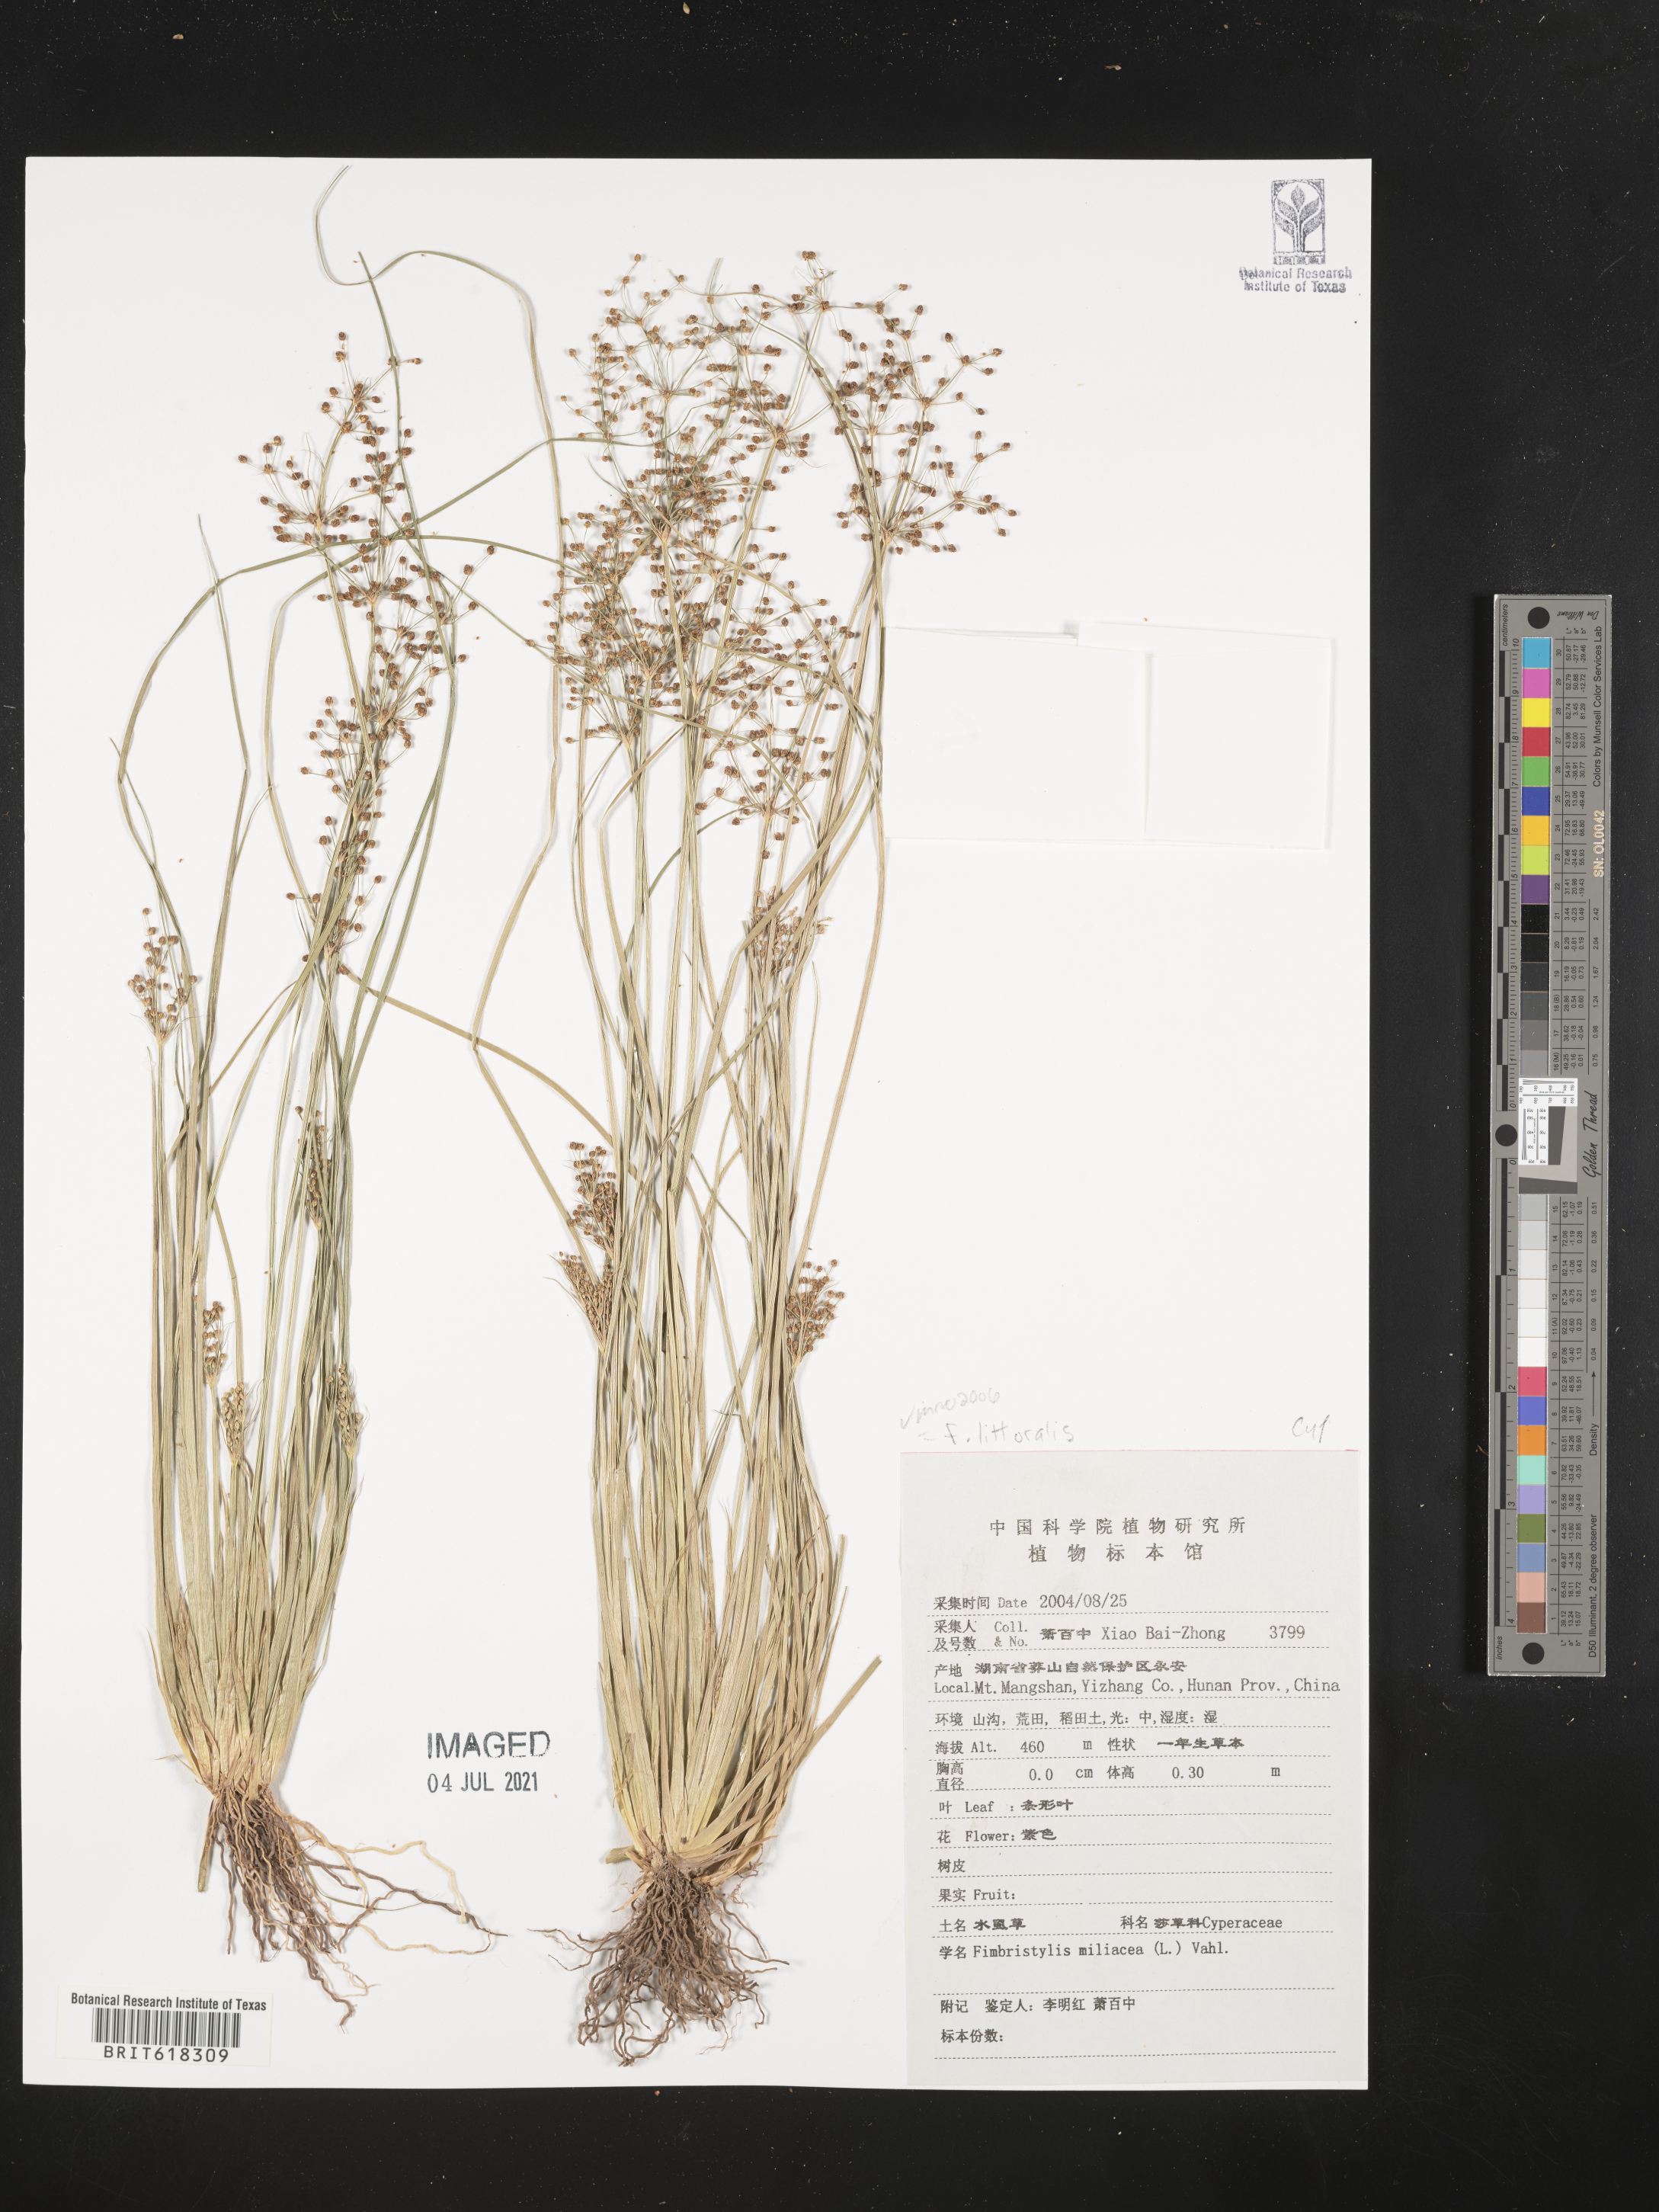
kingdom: Plantae
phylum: Tracheophyta
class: Liliopsida
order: Poales
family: Cyperaceae
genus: Fimbristylis
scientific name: Fimbristylis quinquangularis
